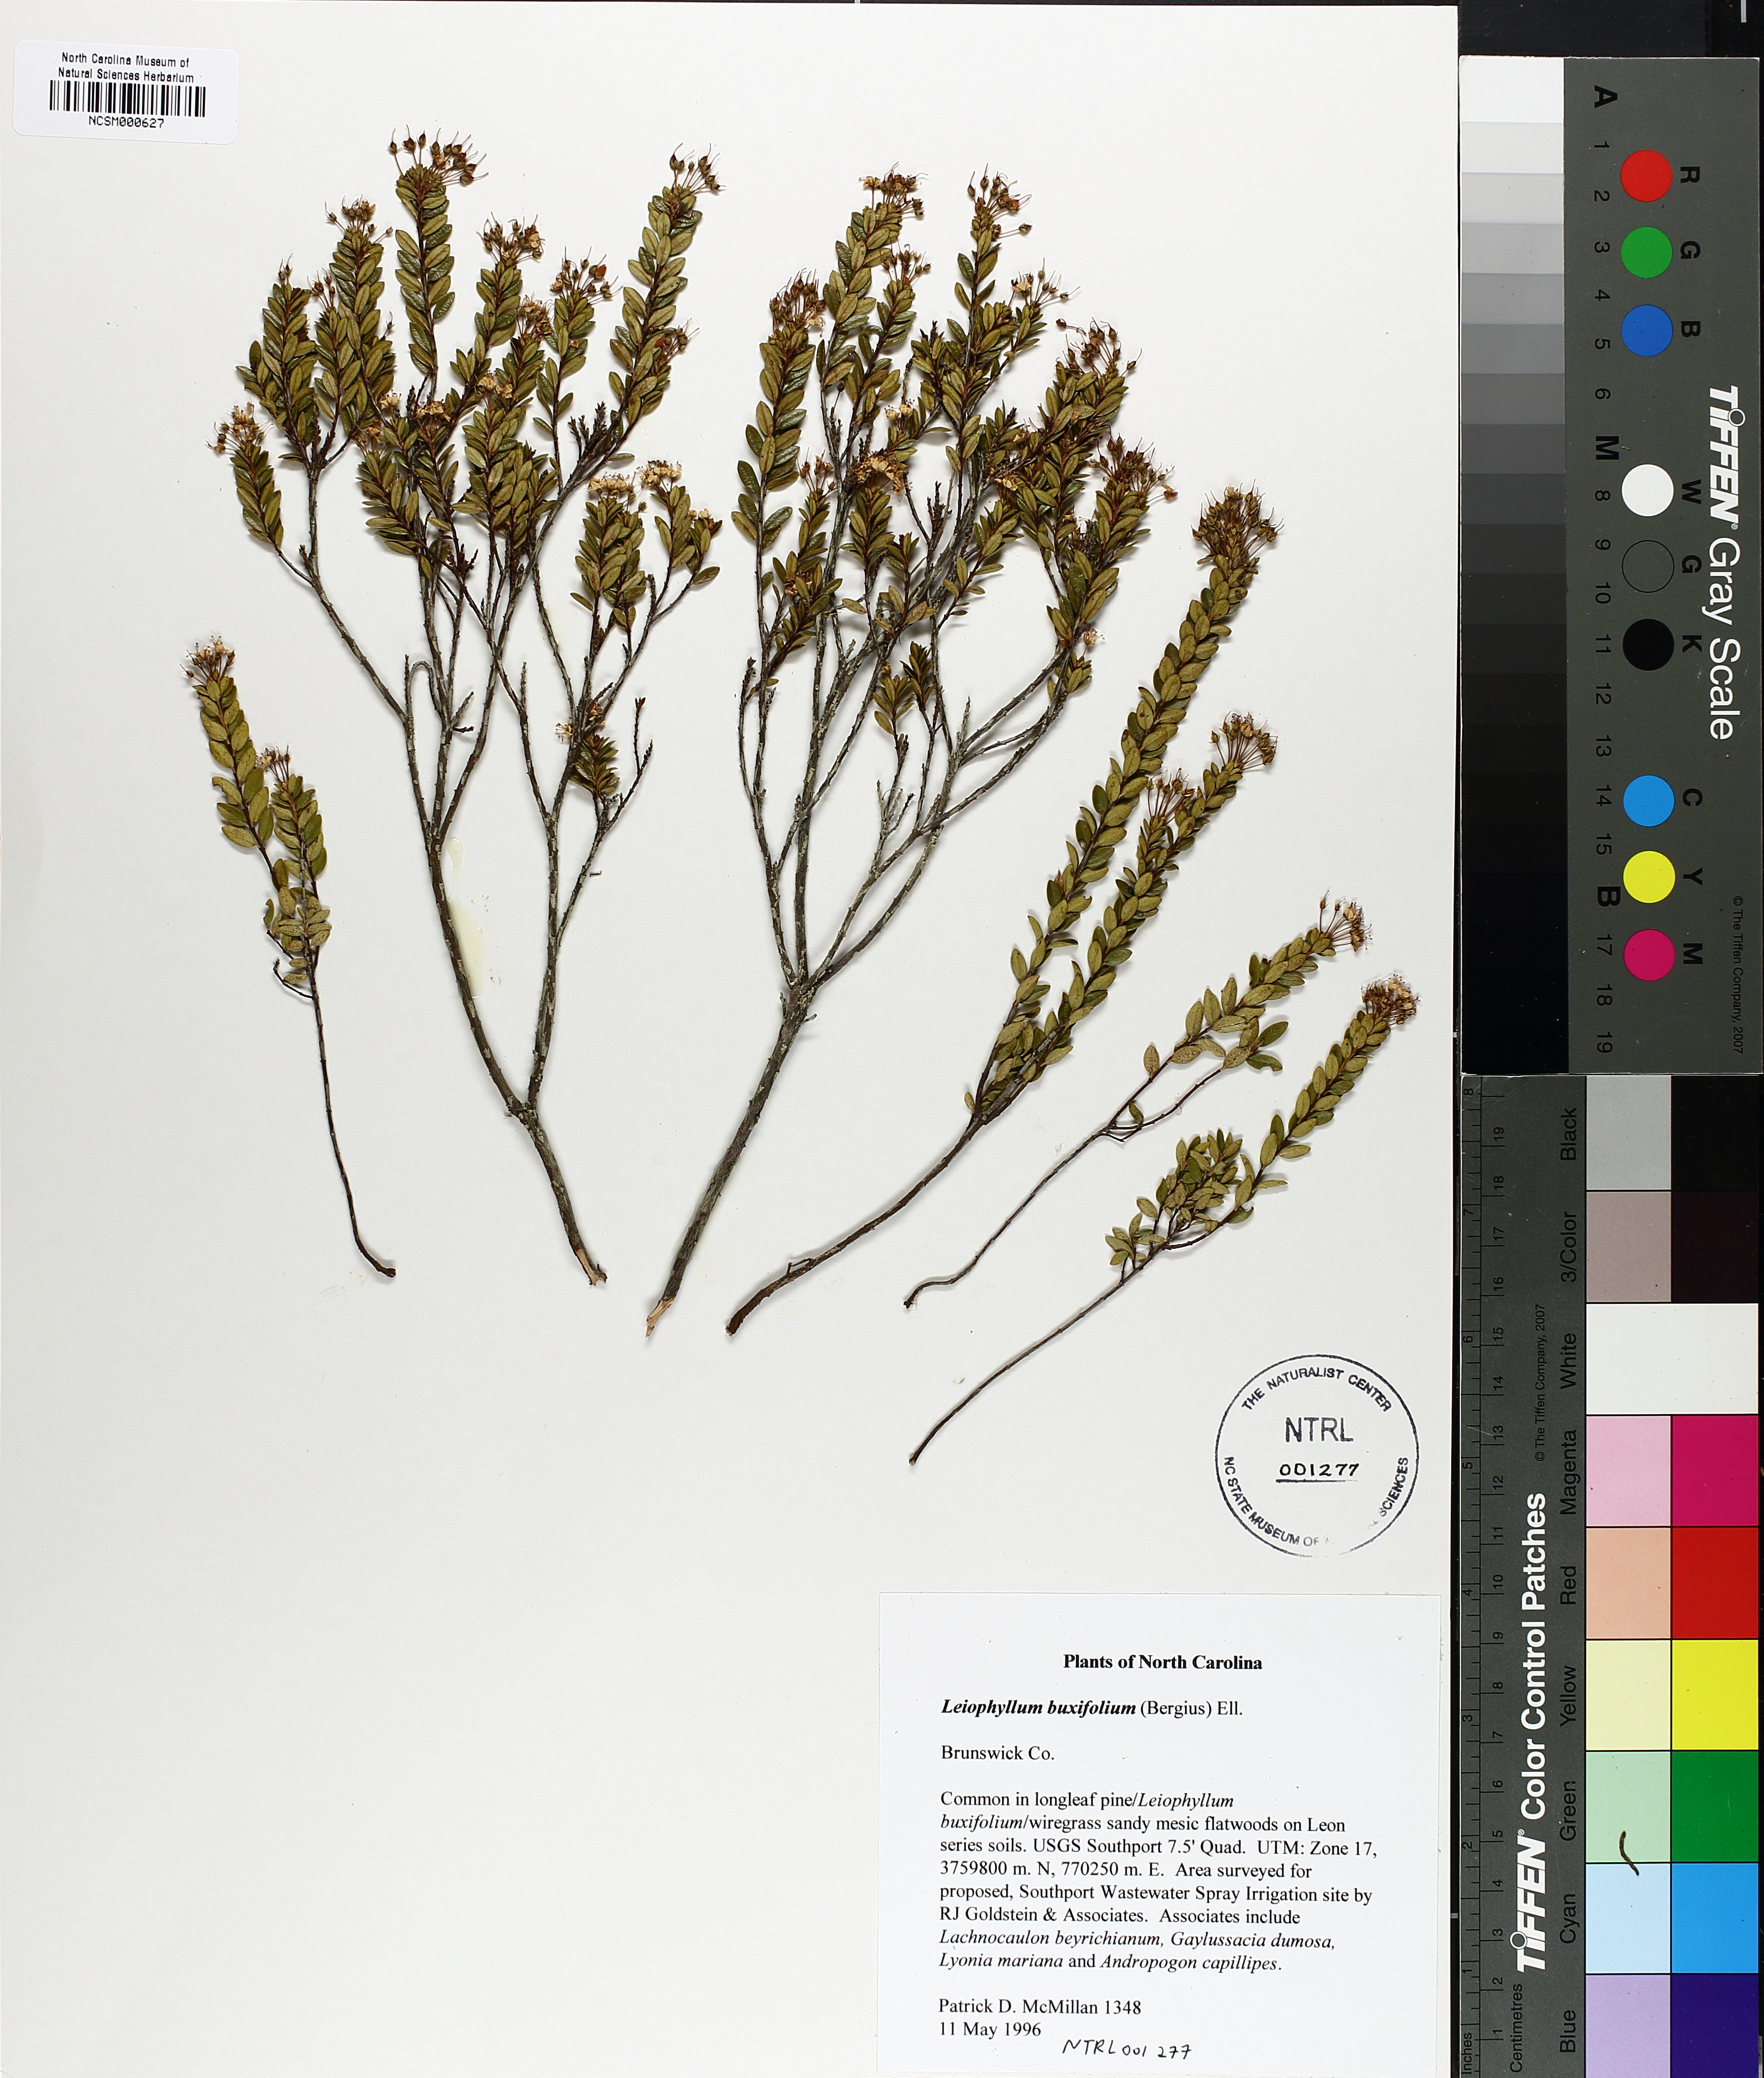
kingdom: Plantae
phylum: Tracheophyta
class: Magnoliopsida
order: Ericales
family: Ericaceae
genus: Kalmia
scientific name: Kalmia buxifolia
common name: Sandmyrtle
